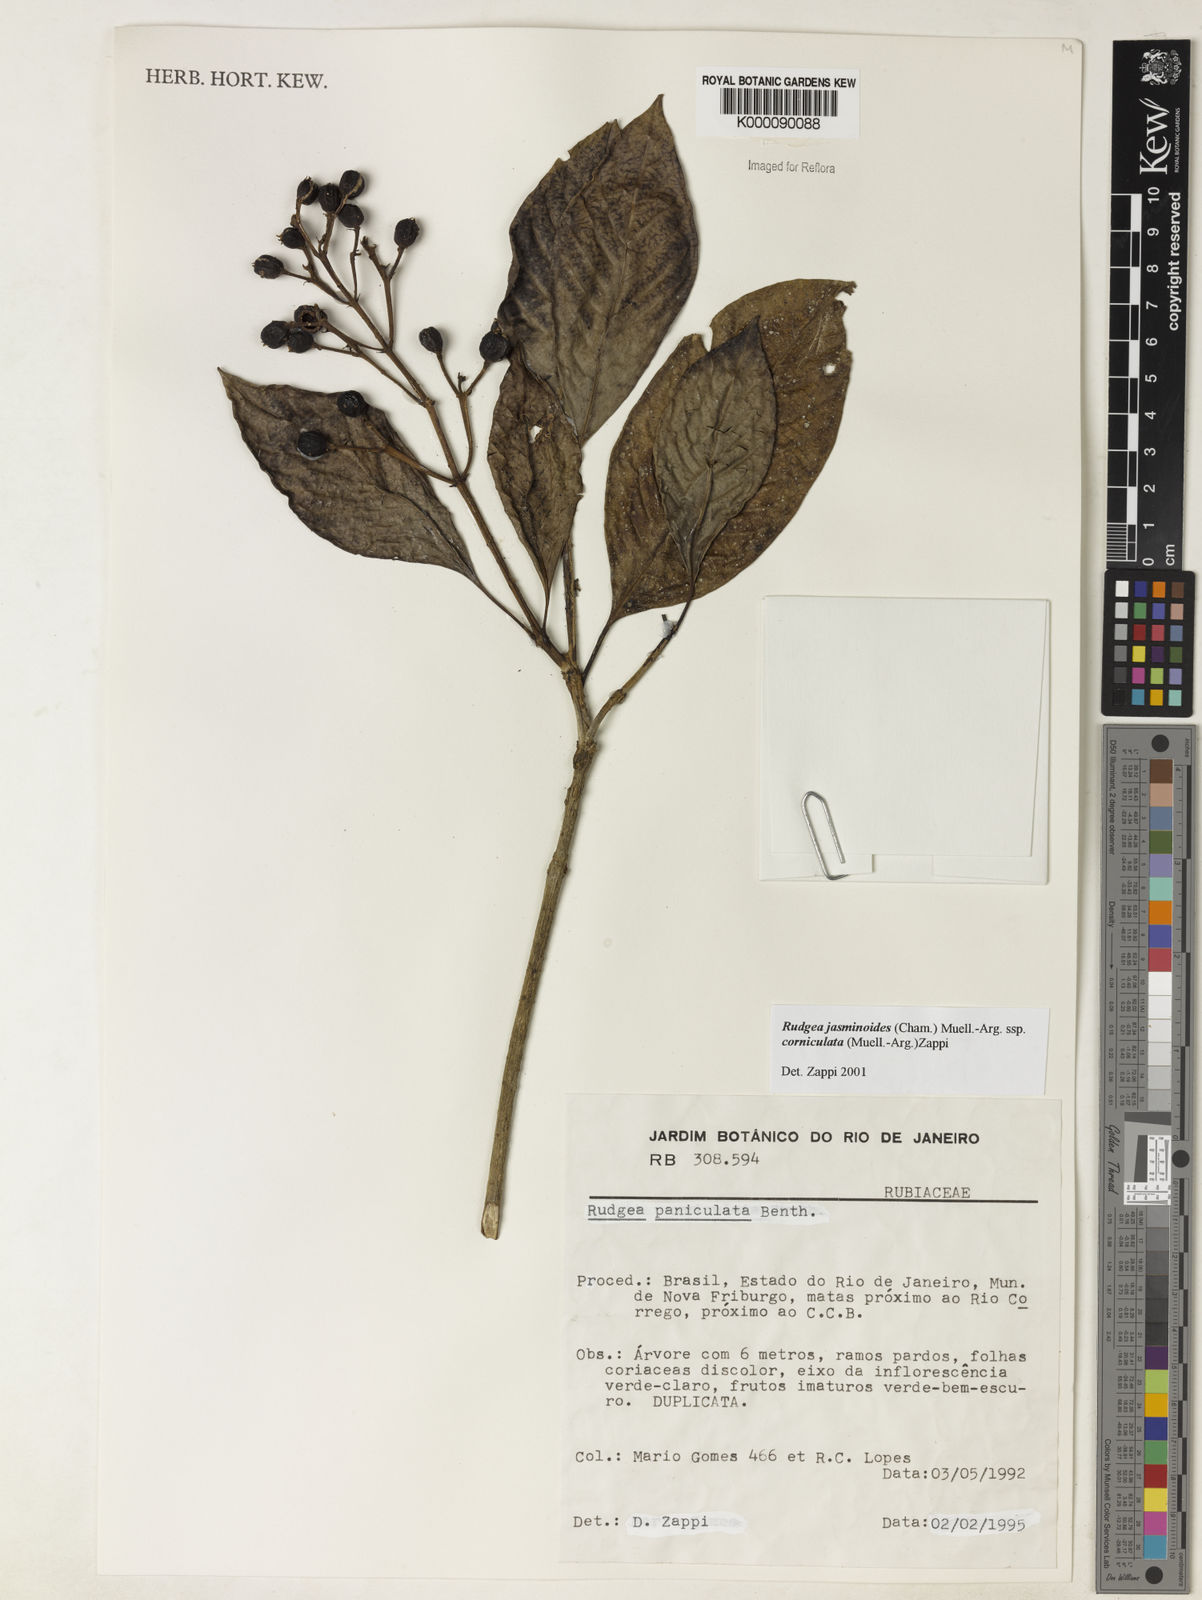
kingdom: Plantae
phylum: Tracheophyta
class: Magnoliopsida
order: Gentianales
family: Rubiaceae
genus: Rudgea
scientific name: Rudgea jasminoides
